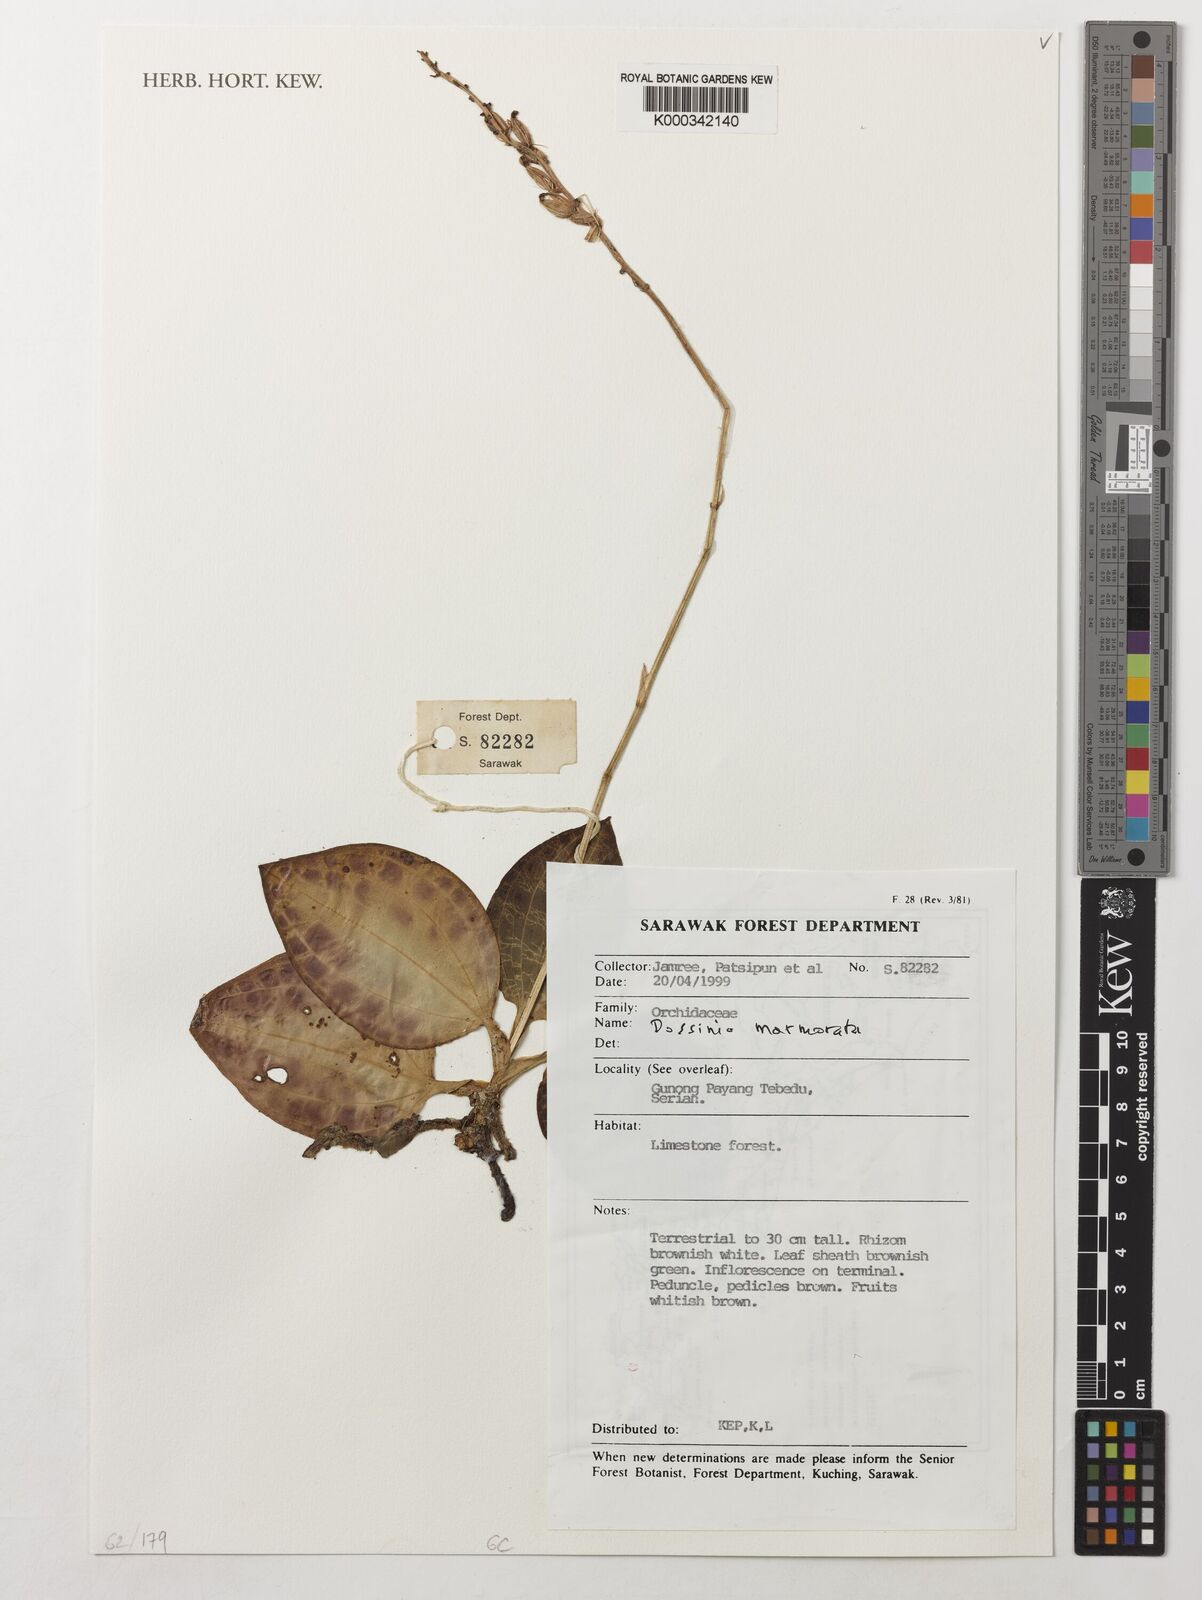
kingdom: Plantae
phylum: Tracheophyta
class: Liliopsida
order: Asparagales
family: Orchidaceae
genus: Dossinia
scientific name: Dossinia marmorata
